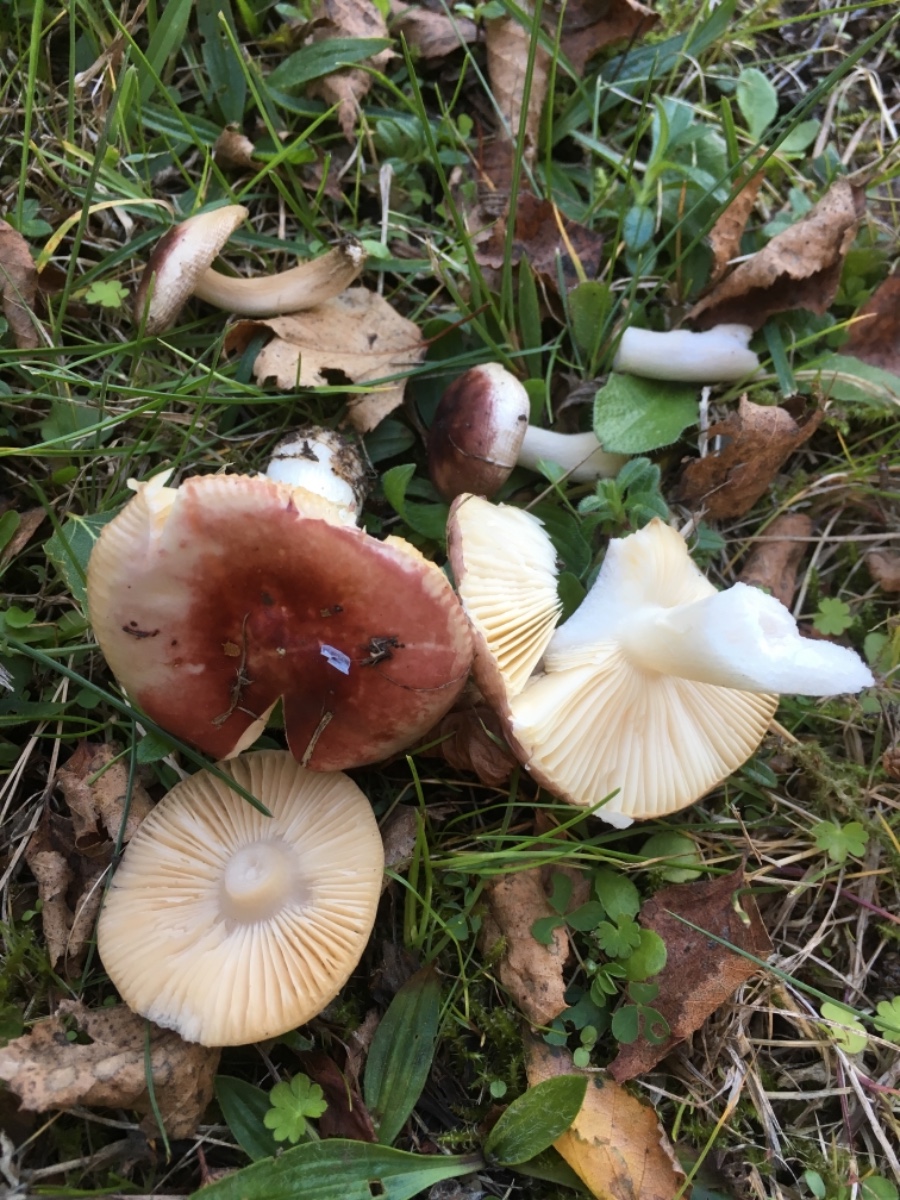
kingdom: Fungi
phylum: Basidiomycota
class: Agaricomycetes
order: Russulales
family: Russulaceae
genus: Russula
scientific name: Russula cessans
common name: fyrre-skørhat
